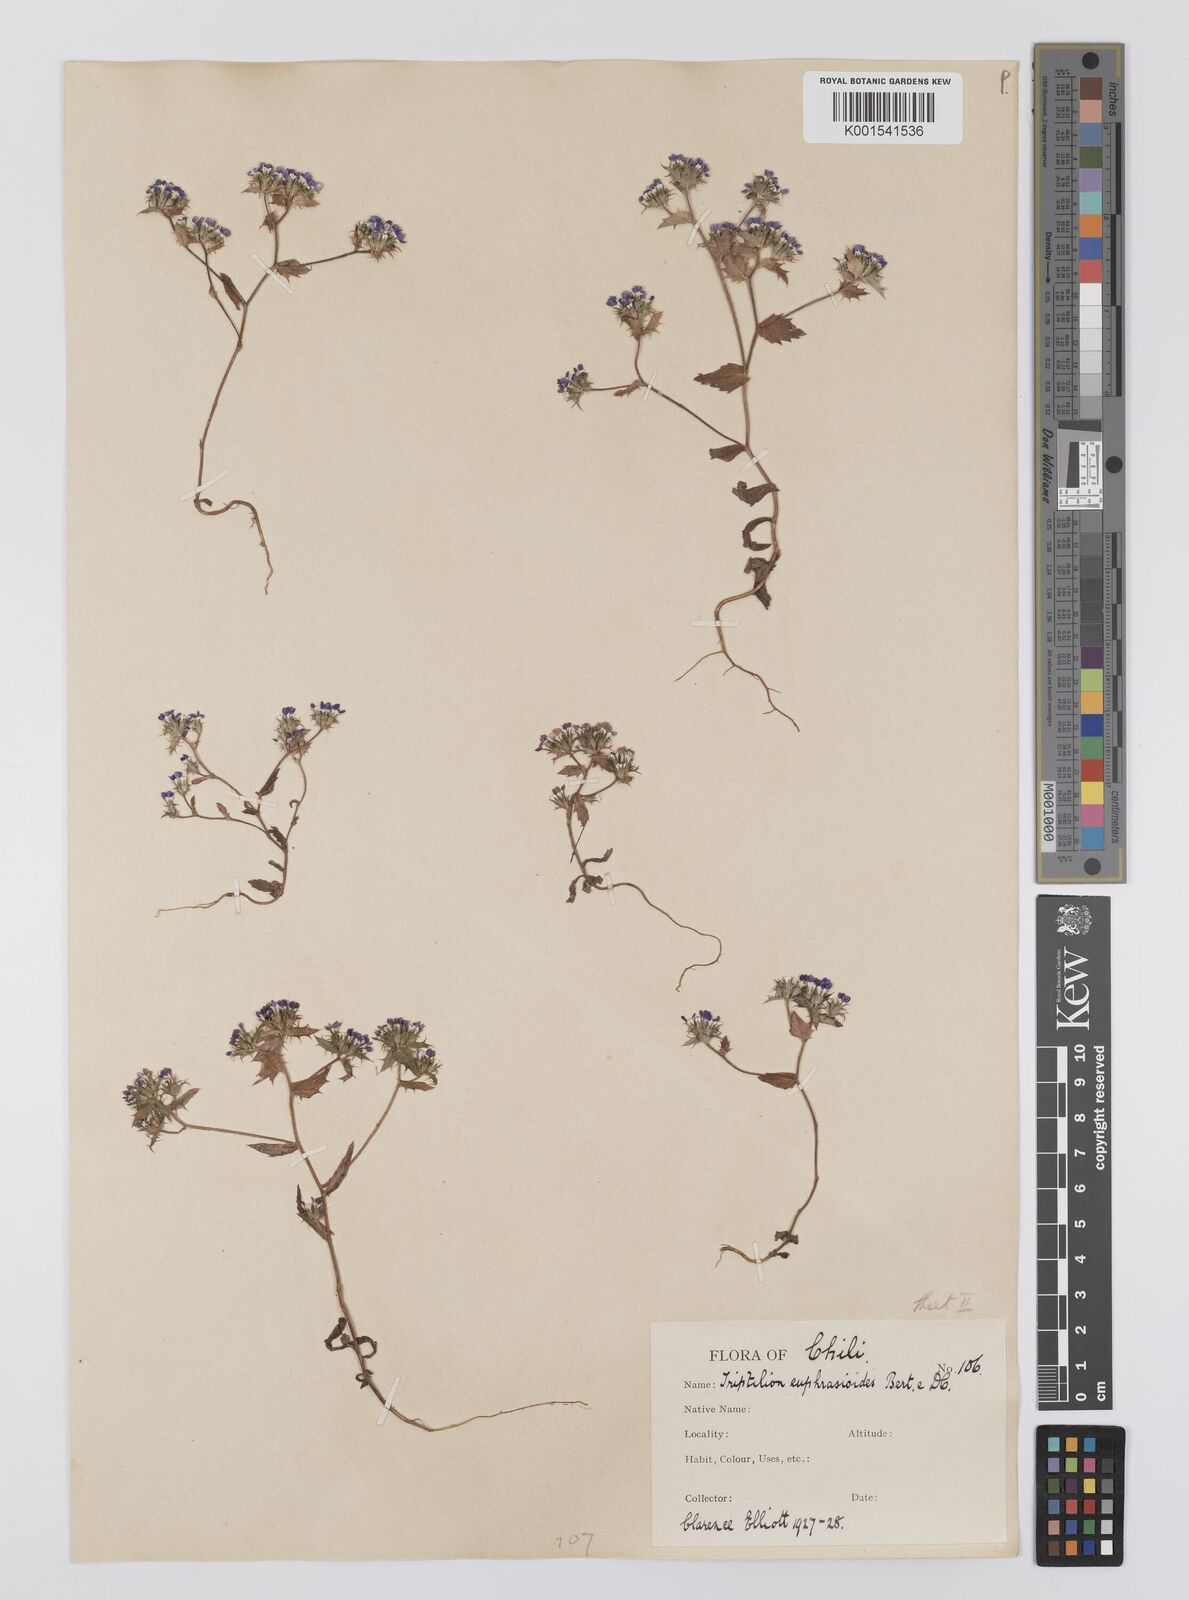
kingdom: Plantae
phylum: Tracheophyta
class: Magnoliopsida
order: Asterales
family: Asteraceae
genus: Triptilion
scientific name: Triptilion achilleae
